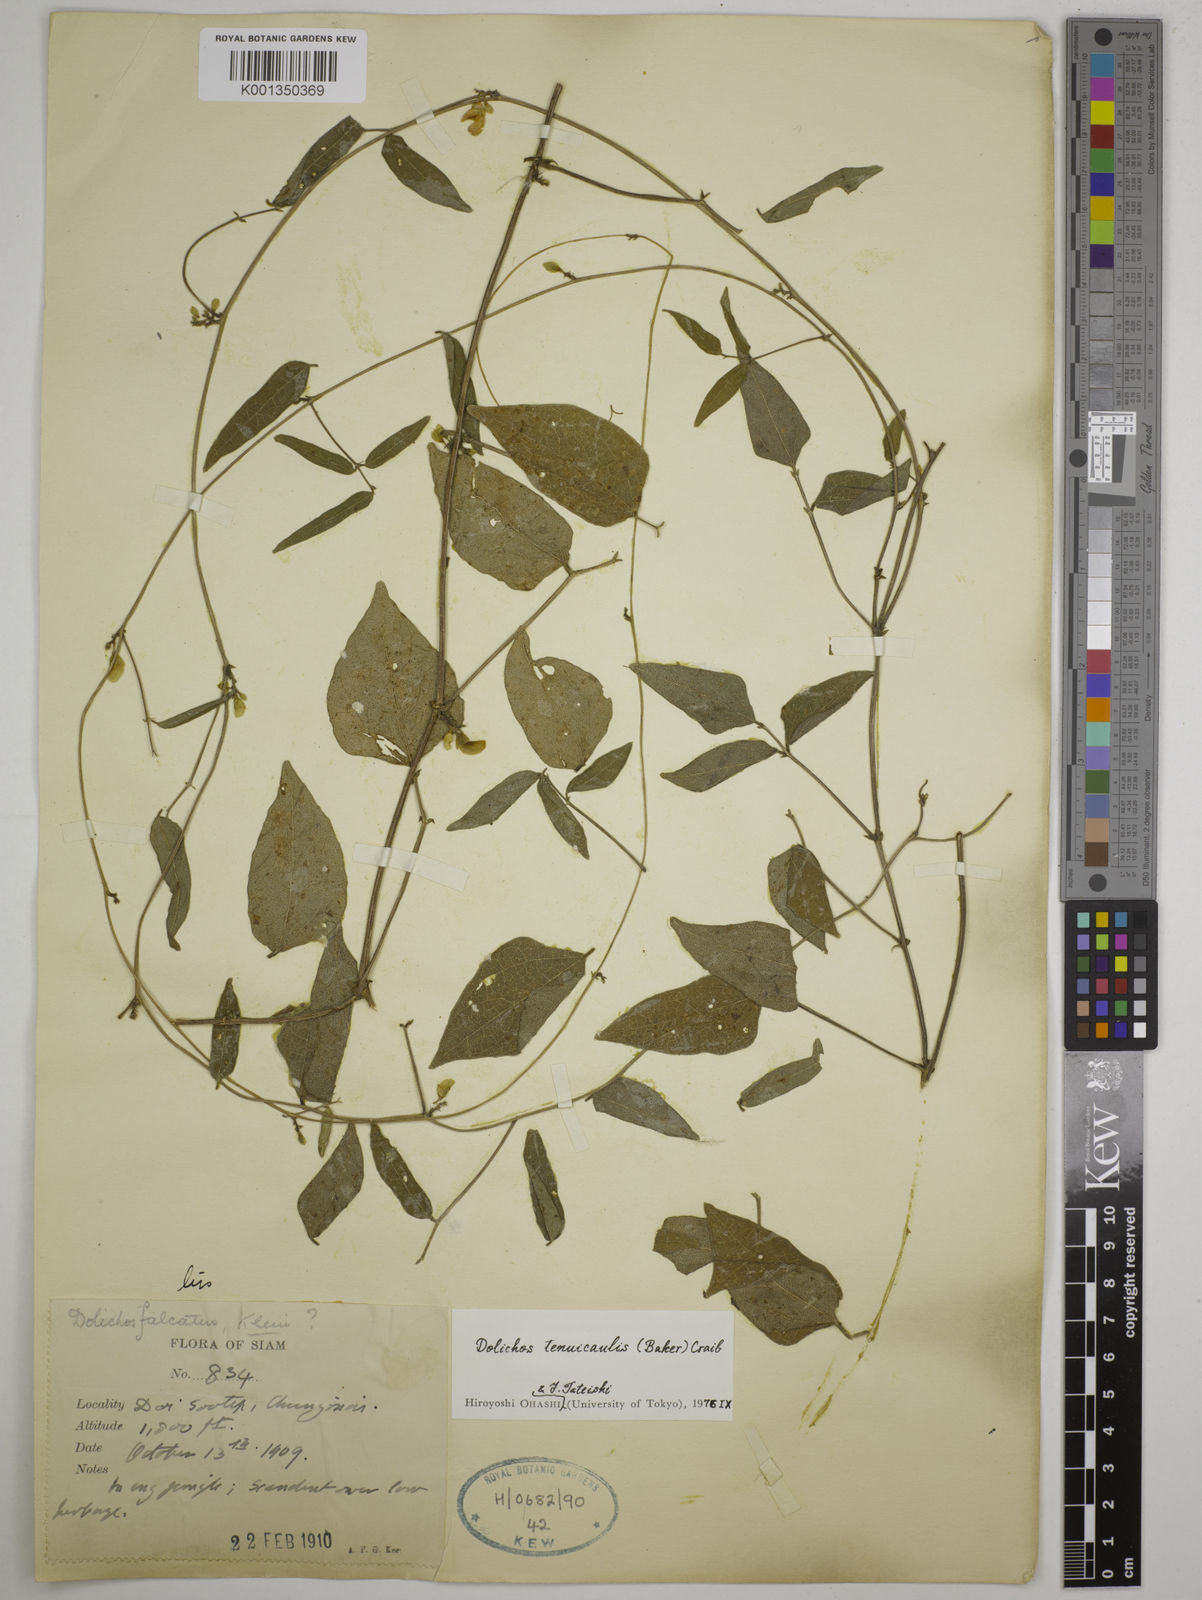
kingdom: Plantae
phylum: Tracheophyta
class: Magnoliopsida
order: Fabales
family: Fabaceae
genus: Dolichos
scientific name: Dolichos tenuicaulis
